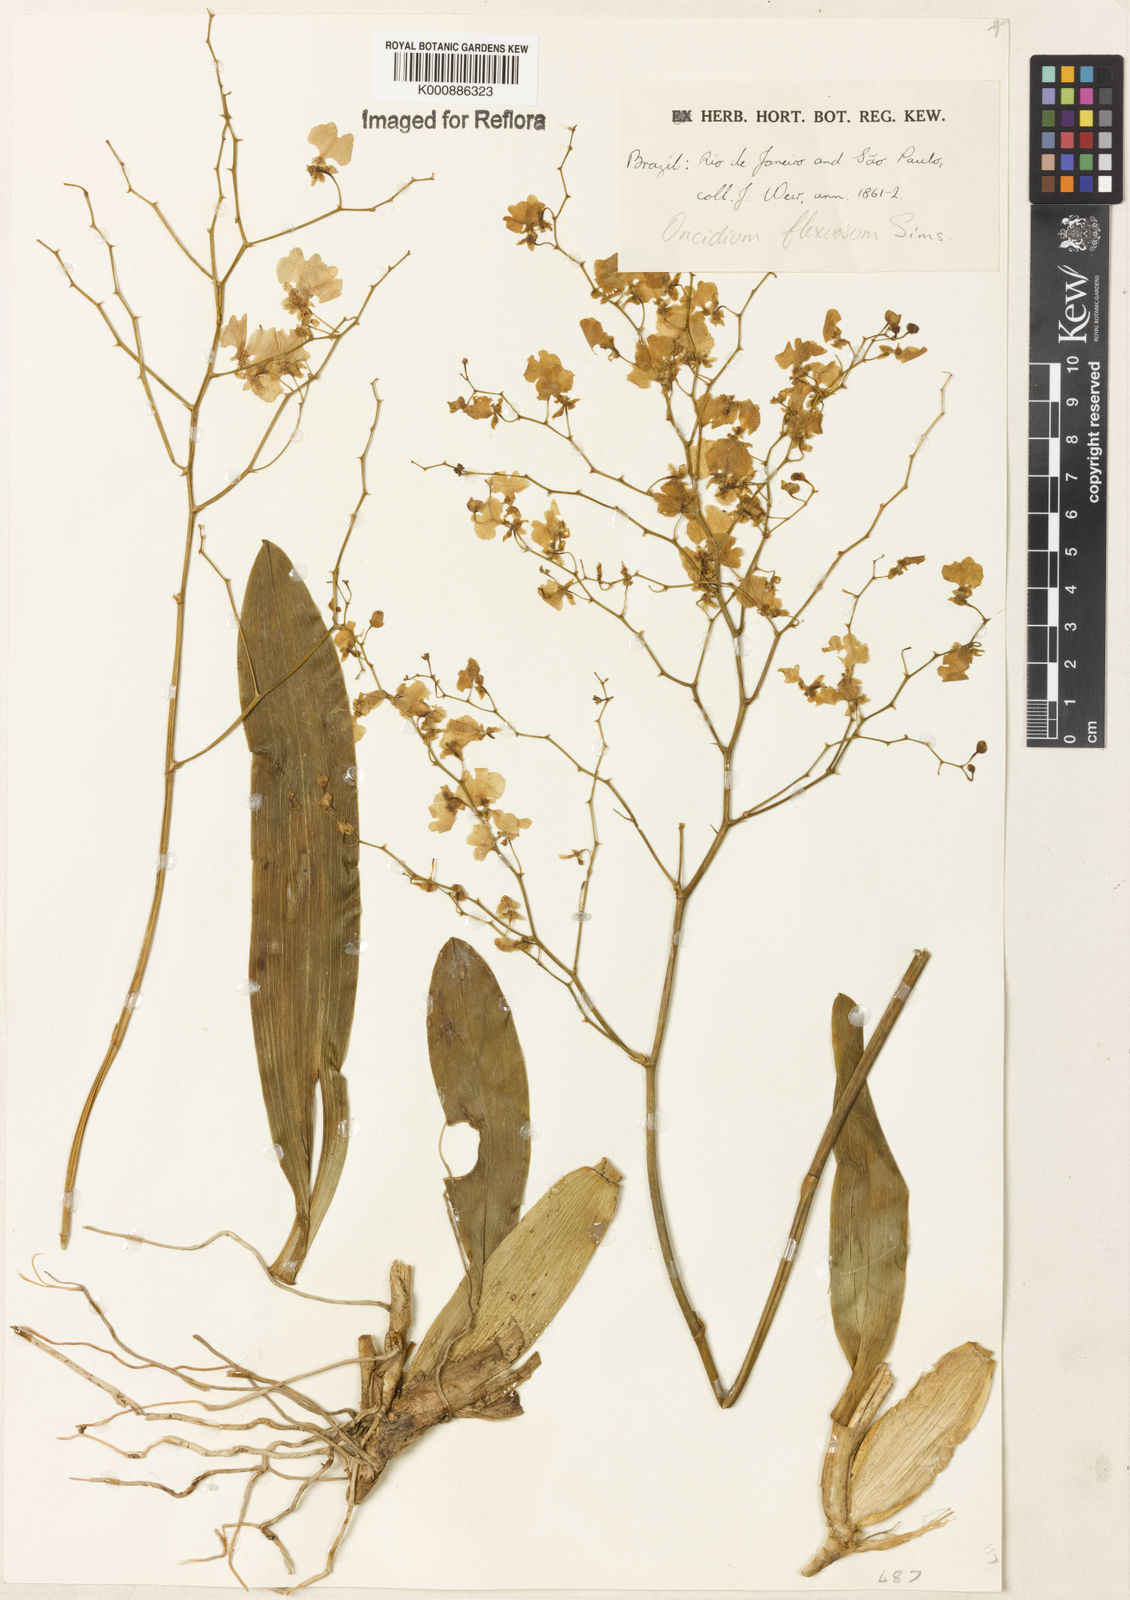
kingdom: Plantae
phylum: Tracheophyta
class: Liliopsida
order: Asparagales
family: Orchidaceae
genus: Gomesa
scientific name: Gomesa flexuosa
